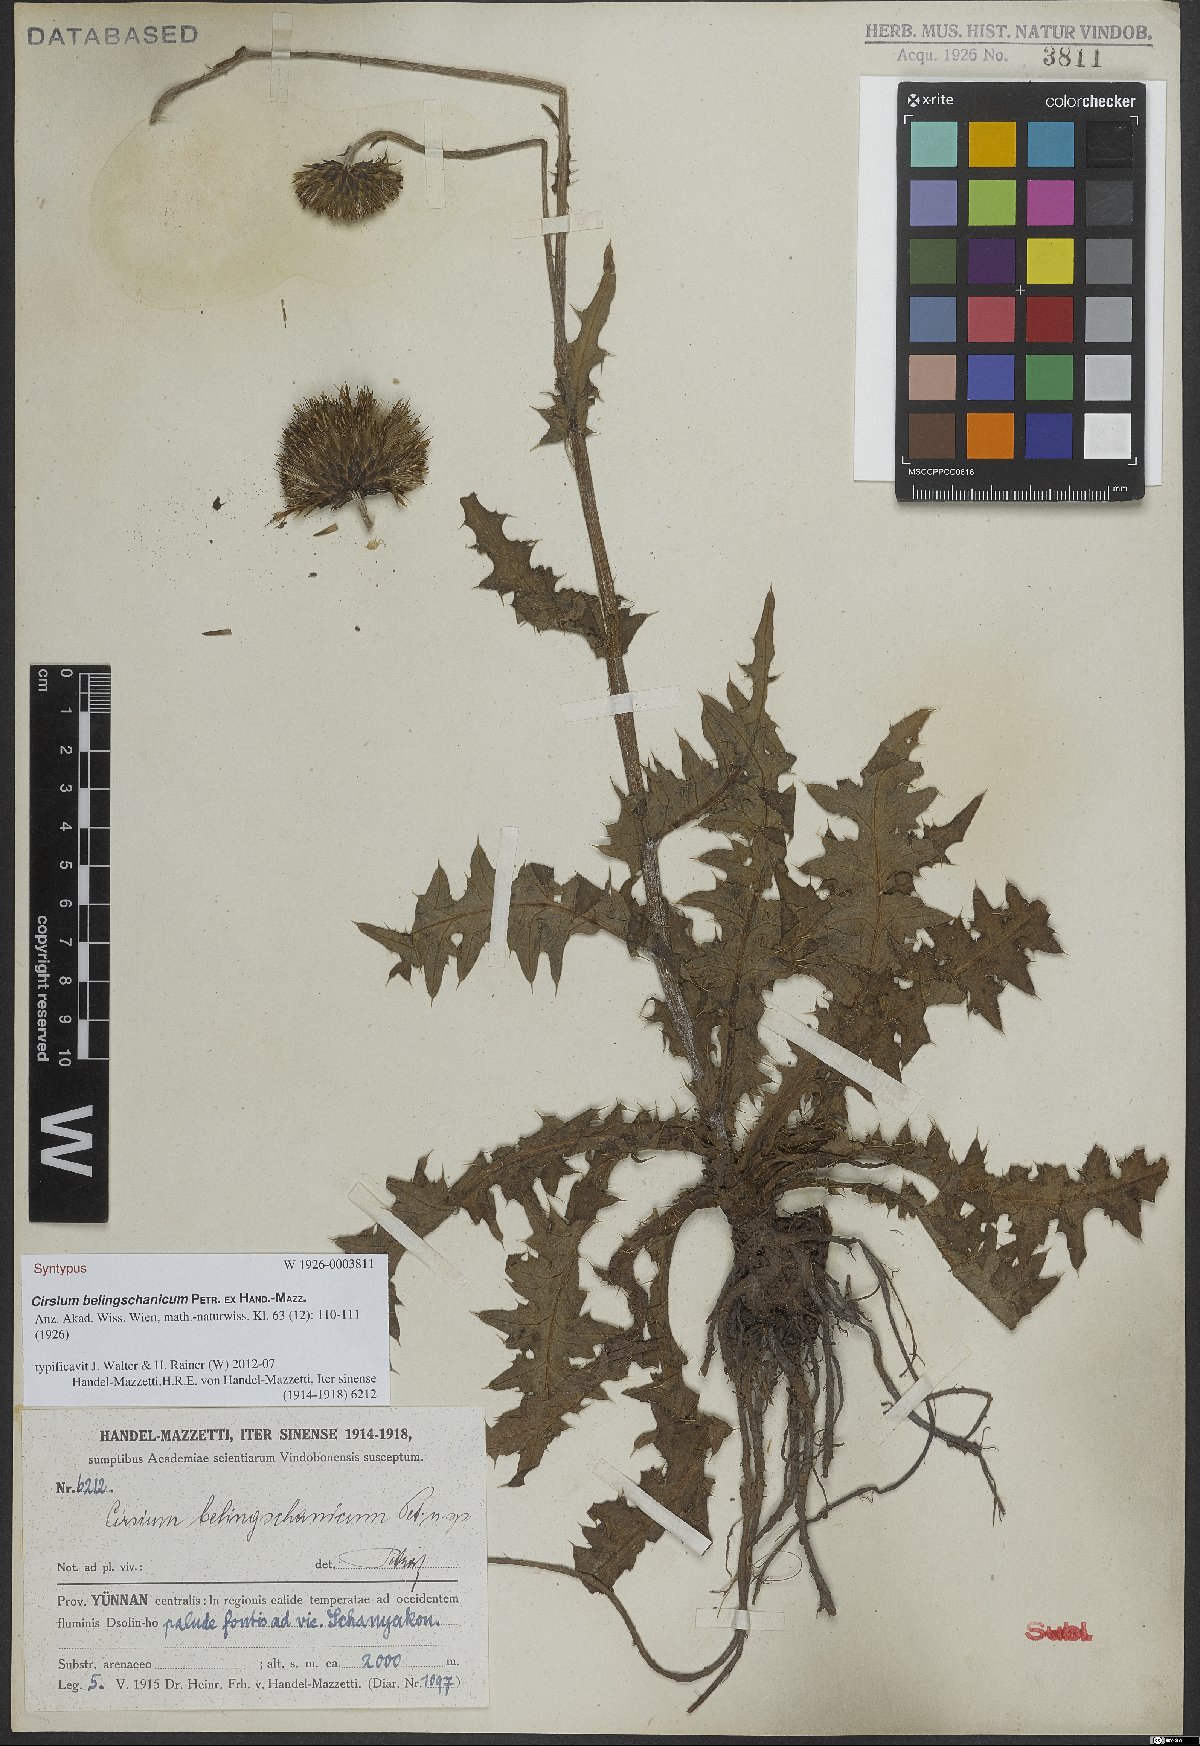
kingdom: Plantae
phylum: Tracheophyta
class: Magnoliopsida
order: Asterales
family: Asteraceae
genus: Cirsium
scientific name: Cirsium japonicum
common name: Japanese thistle
